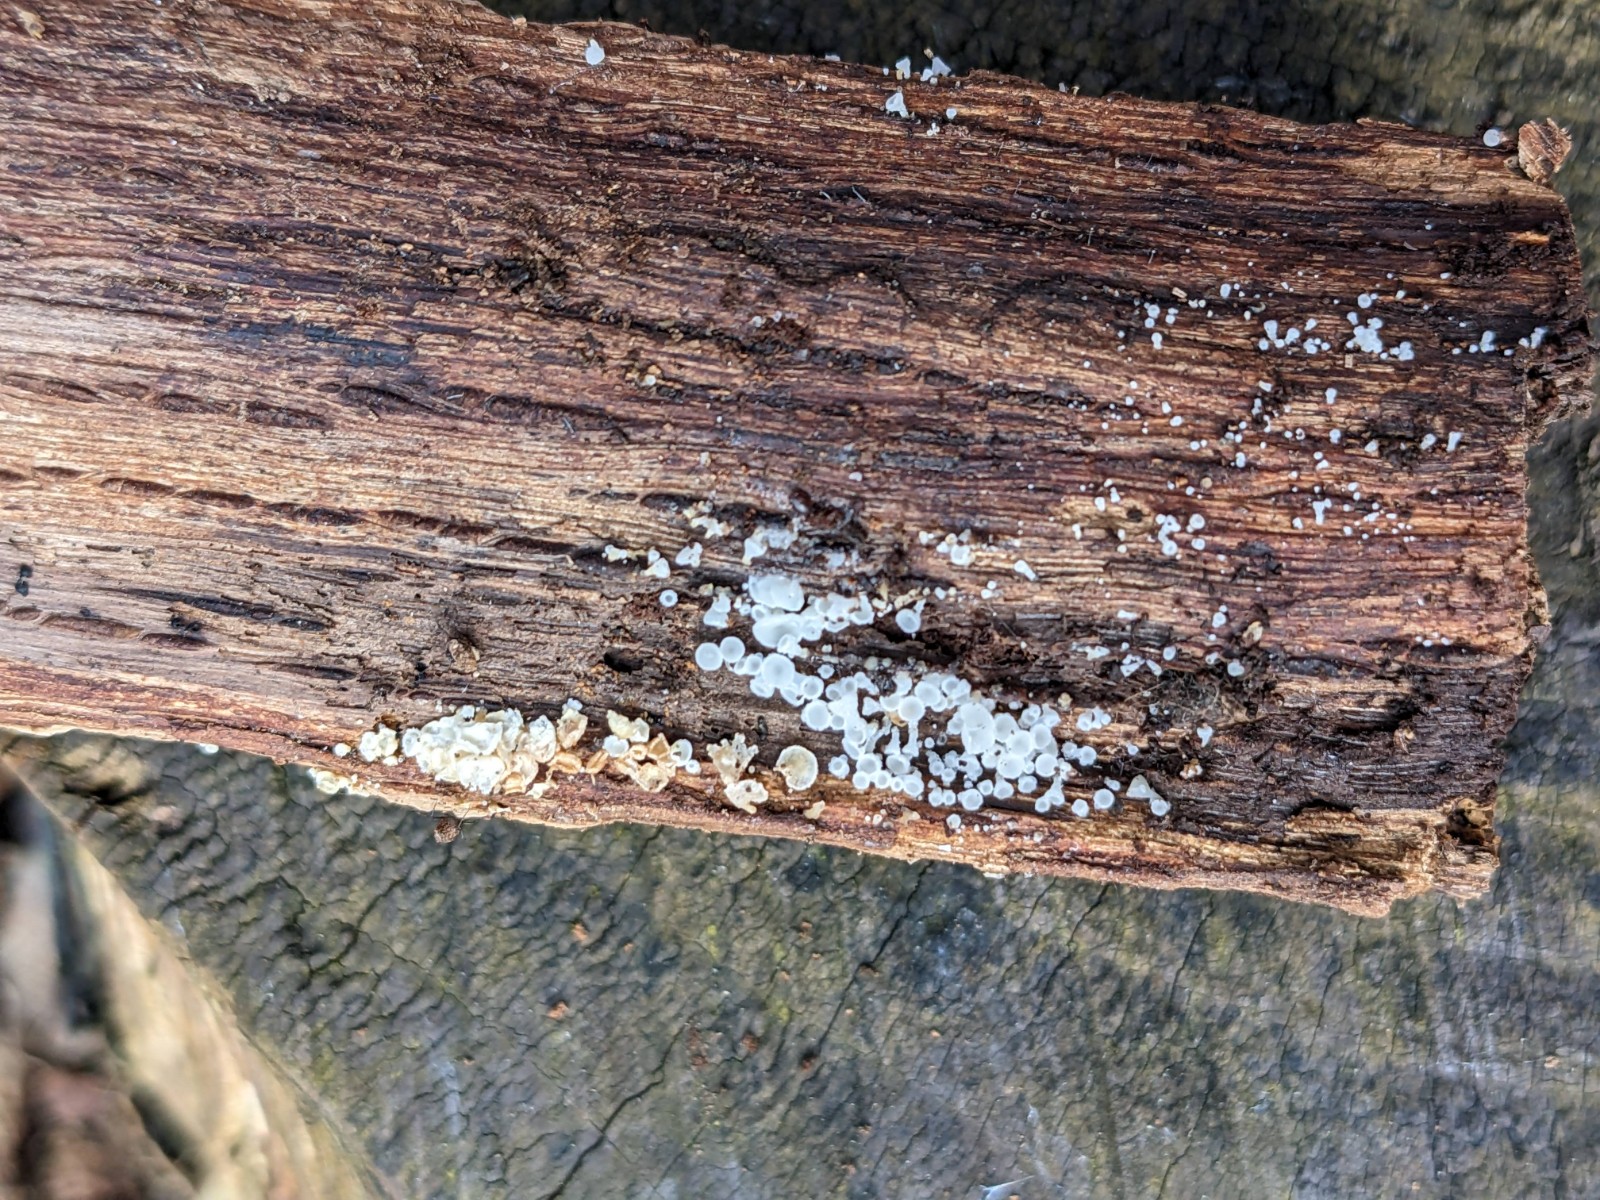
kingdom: Fungi
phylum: Ascomycota
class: Leotiomycetes
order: Helotiales
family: Lachnaceae
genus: Dasyscyphella
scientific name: Dasyscyphella nivea
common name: hvid frynseskive
